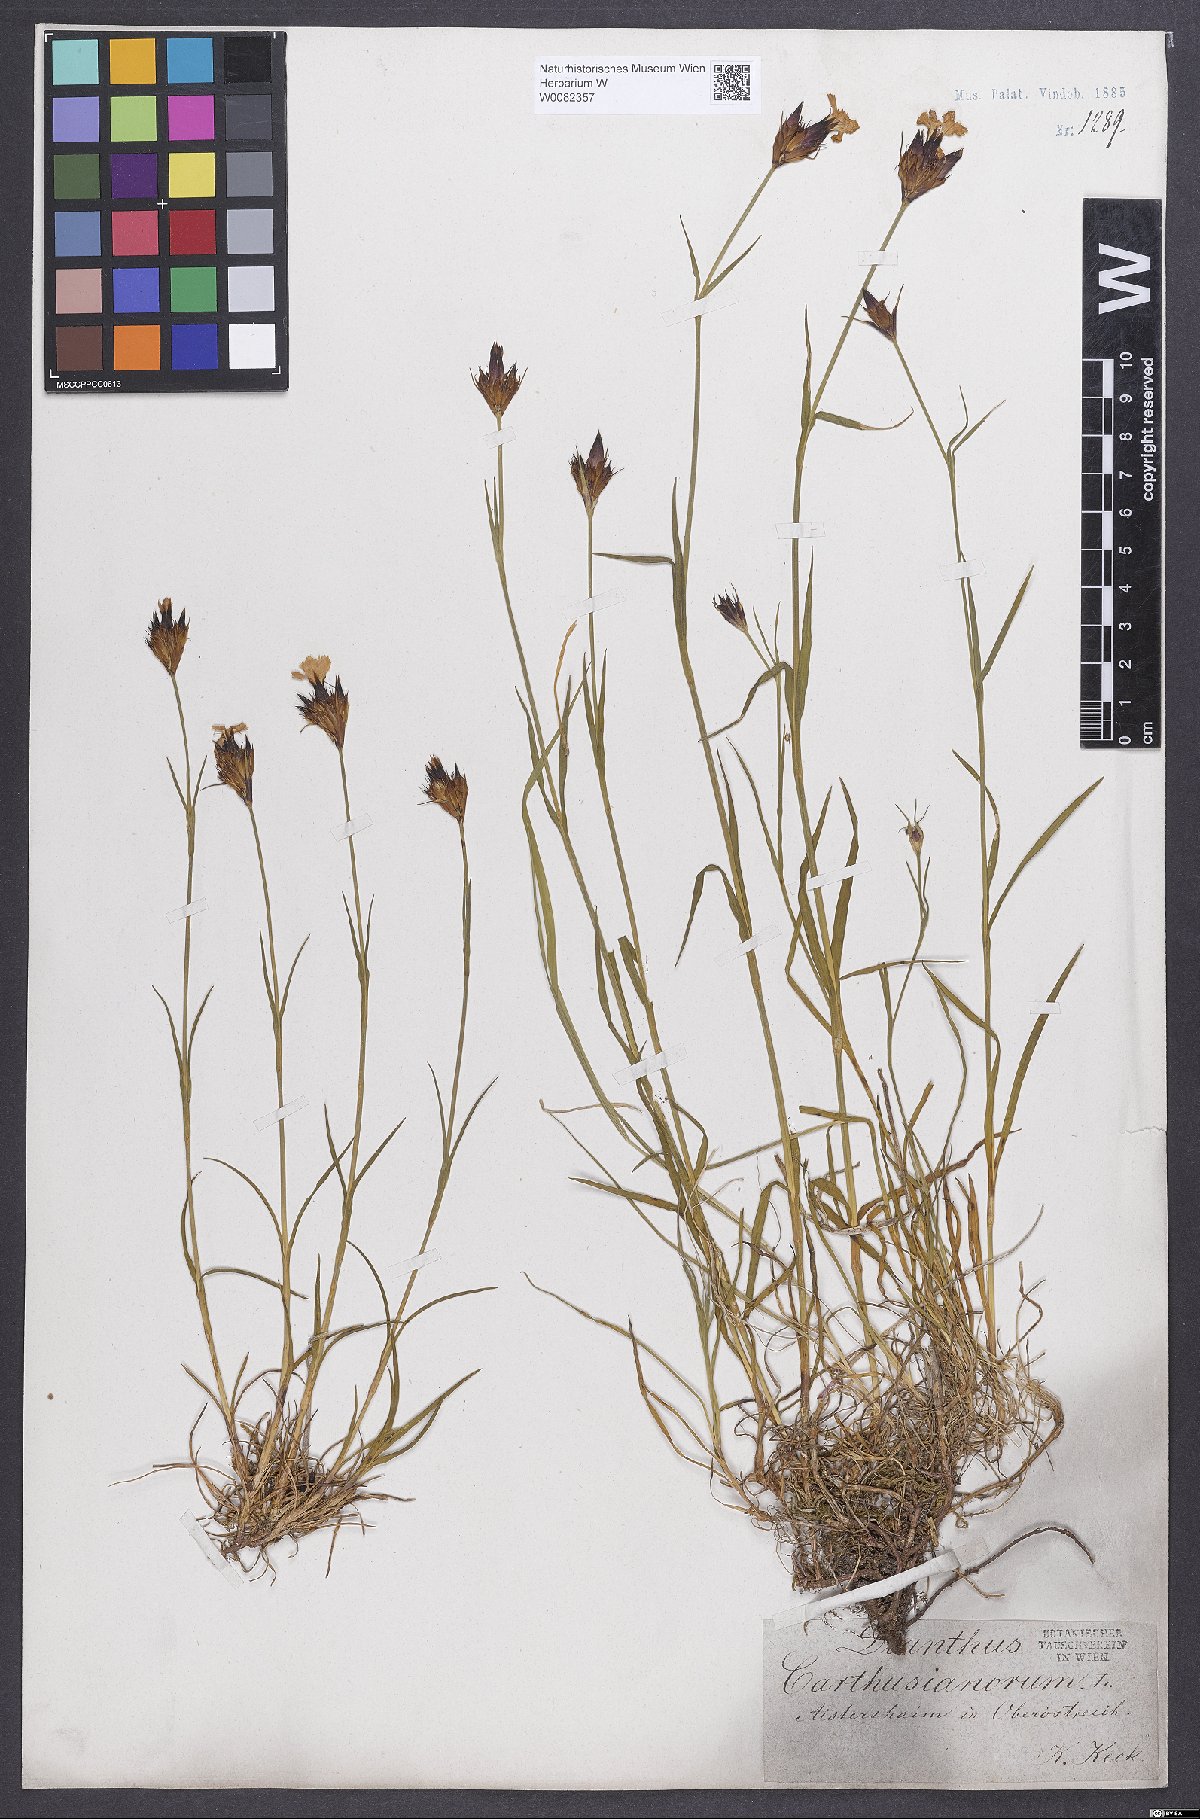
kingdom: Plantae
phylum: Tracheophyta
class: Magnoliopsida
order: Caryophyllales
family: Caryophyllaceae
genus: Dianthus
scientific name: Dianthus carthusianorum
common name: Carthusian pink
